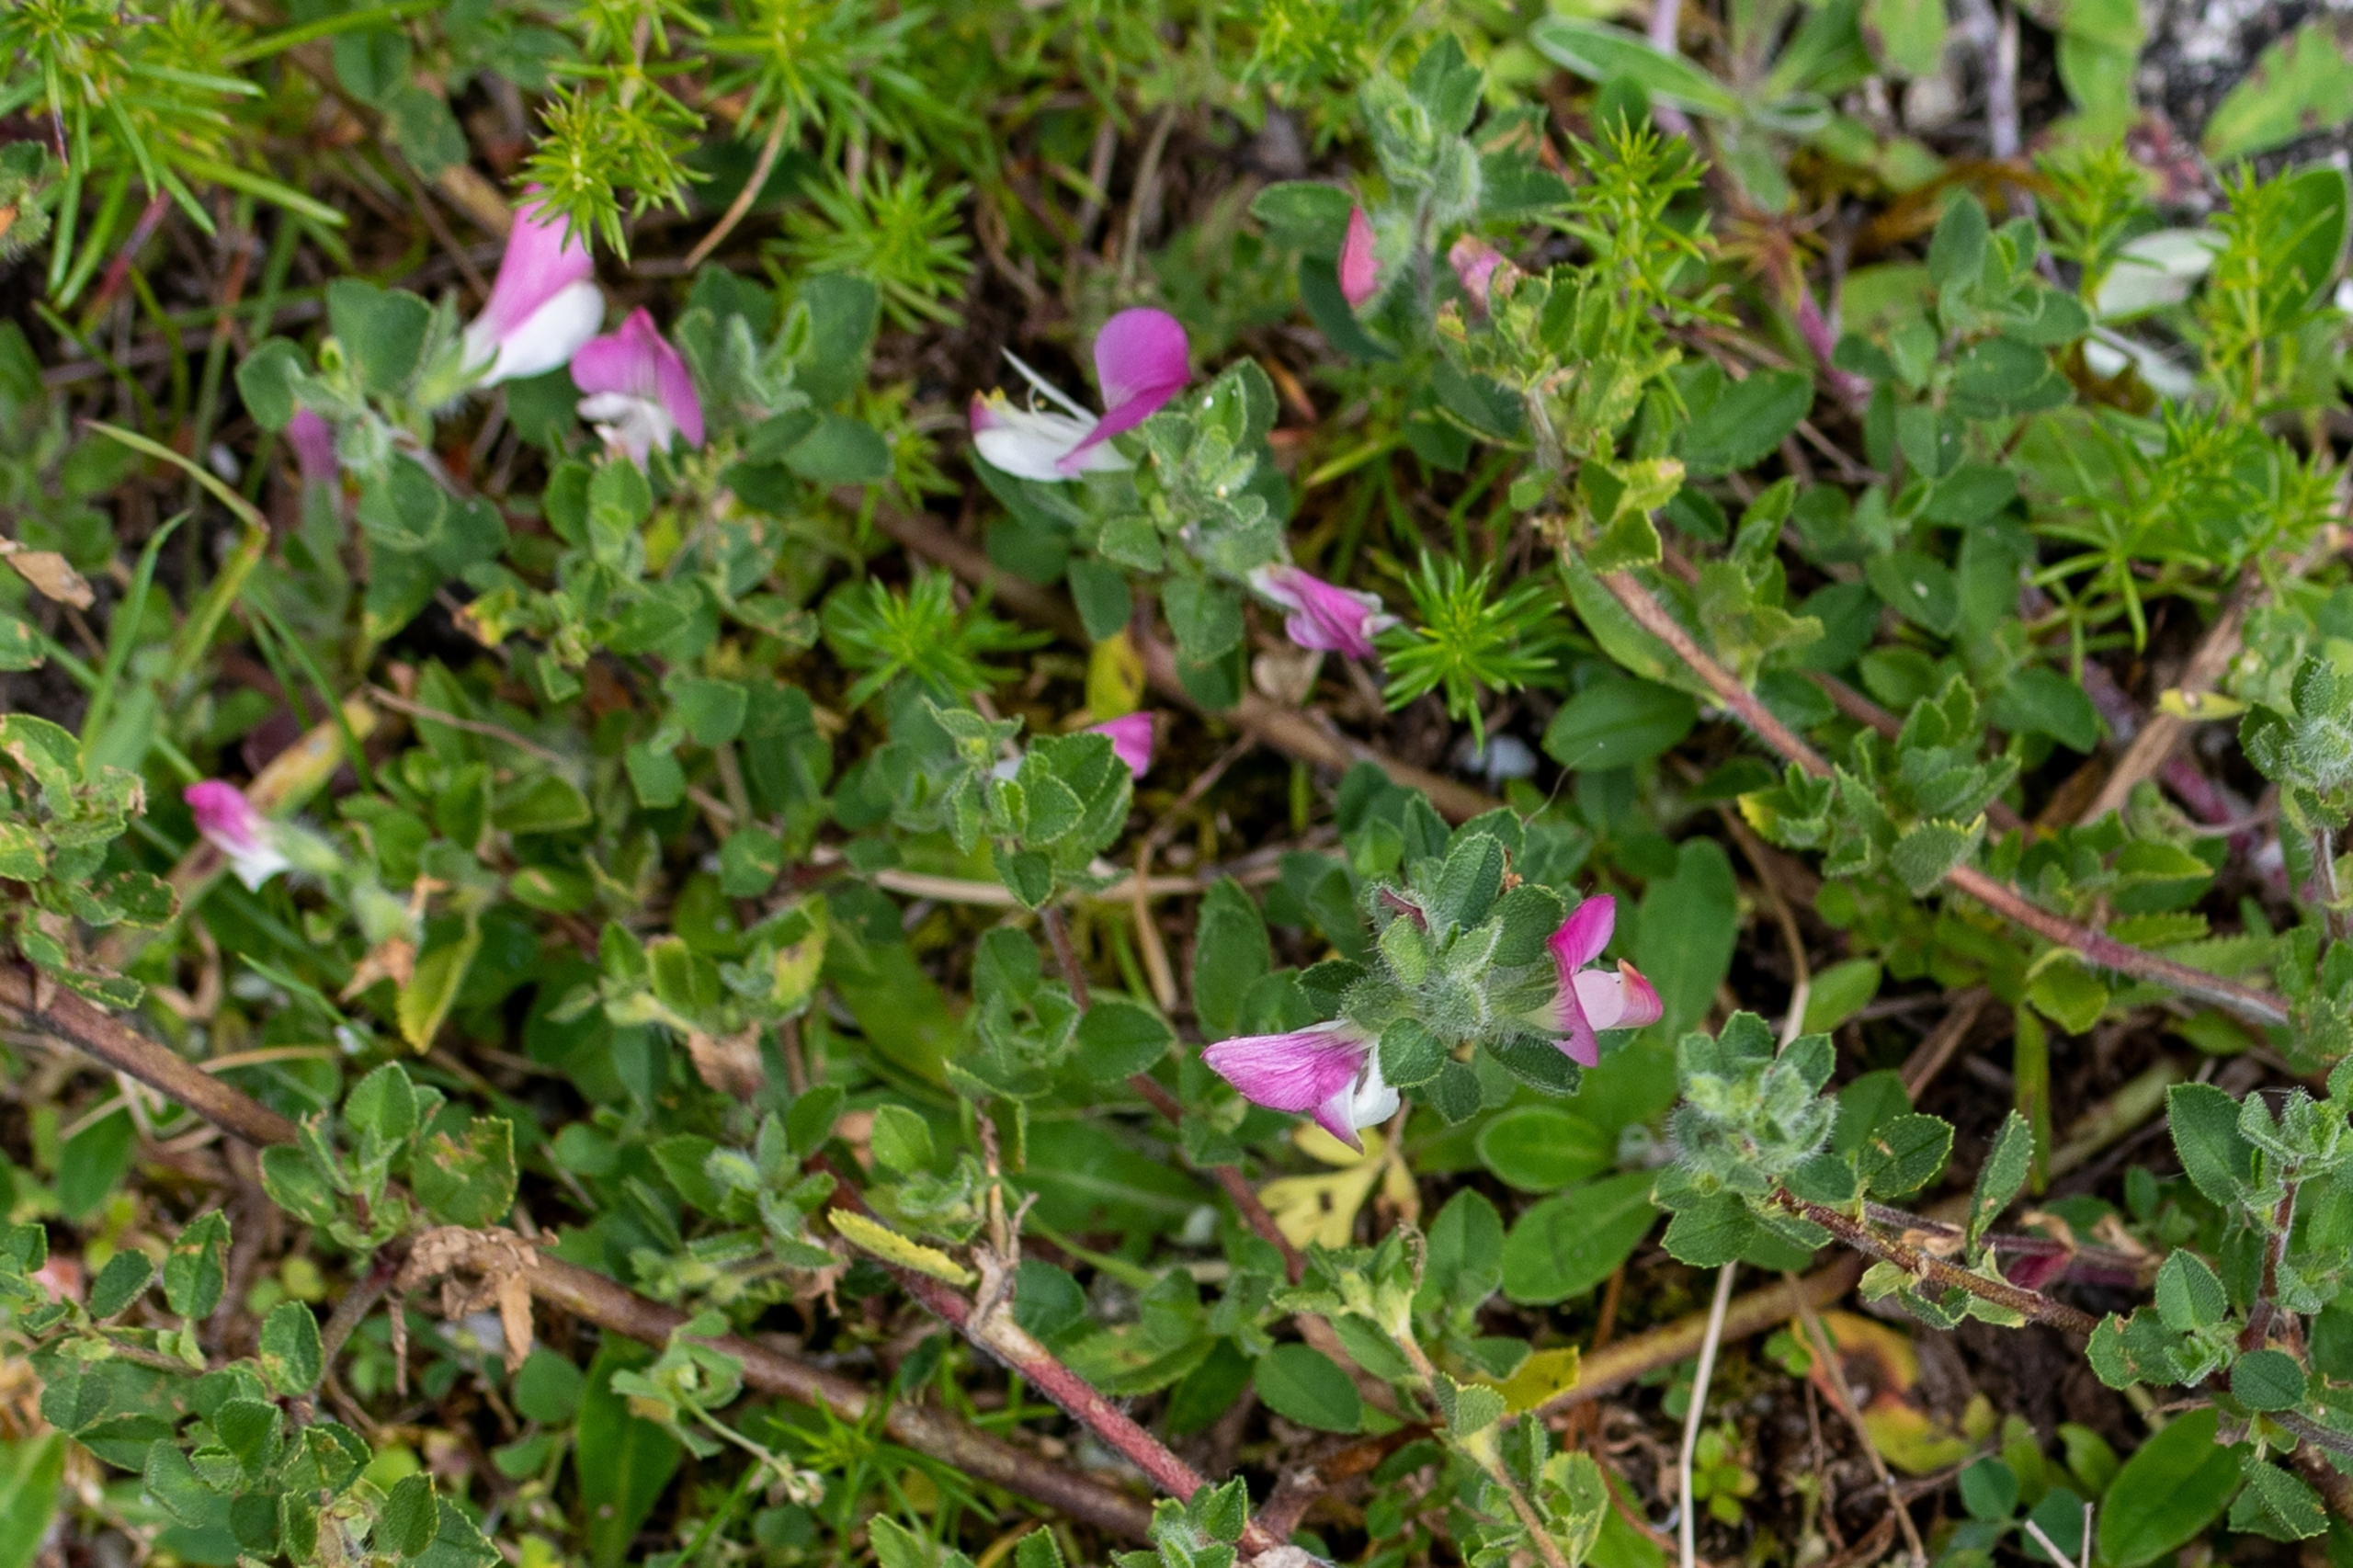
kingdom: Plantae
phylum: Tracheophyta
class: Magnoliopsida
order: Fabales
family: Fabaceae
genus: Ononis
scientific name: Ononis spinosa
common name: Mark-krageklo
